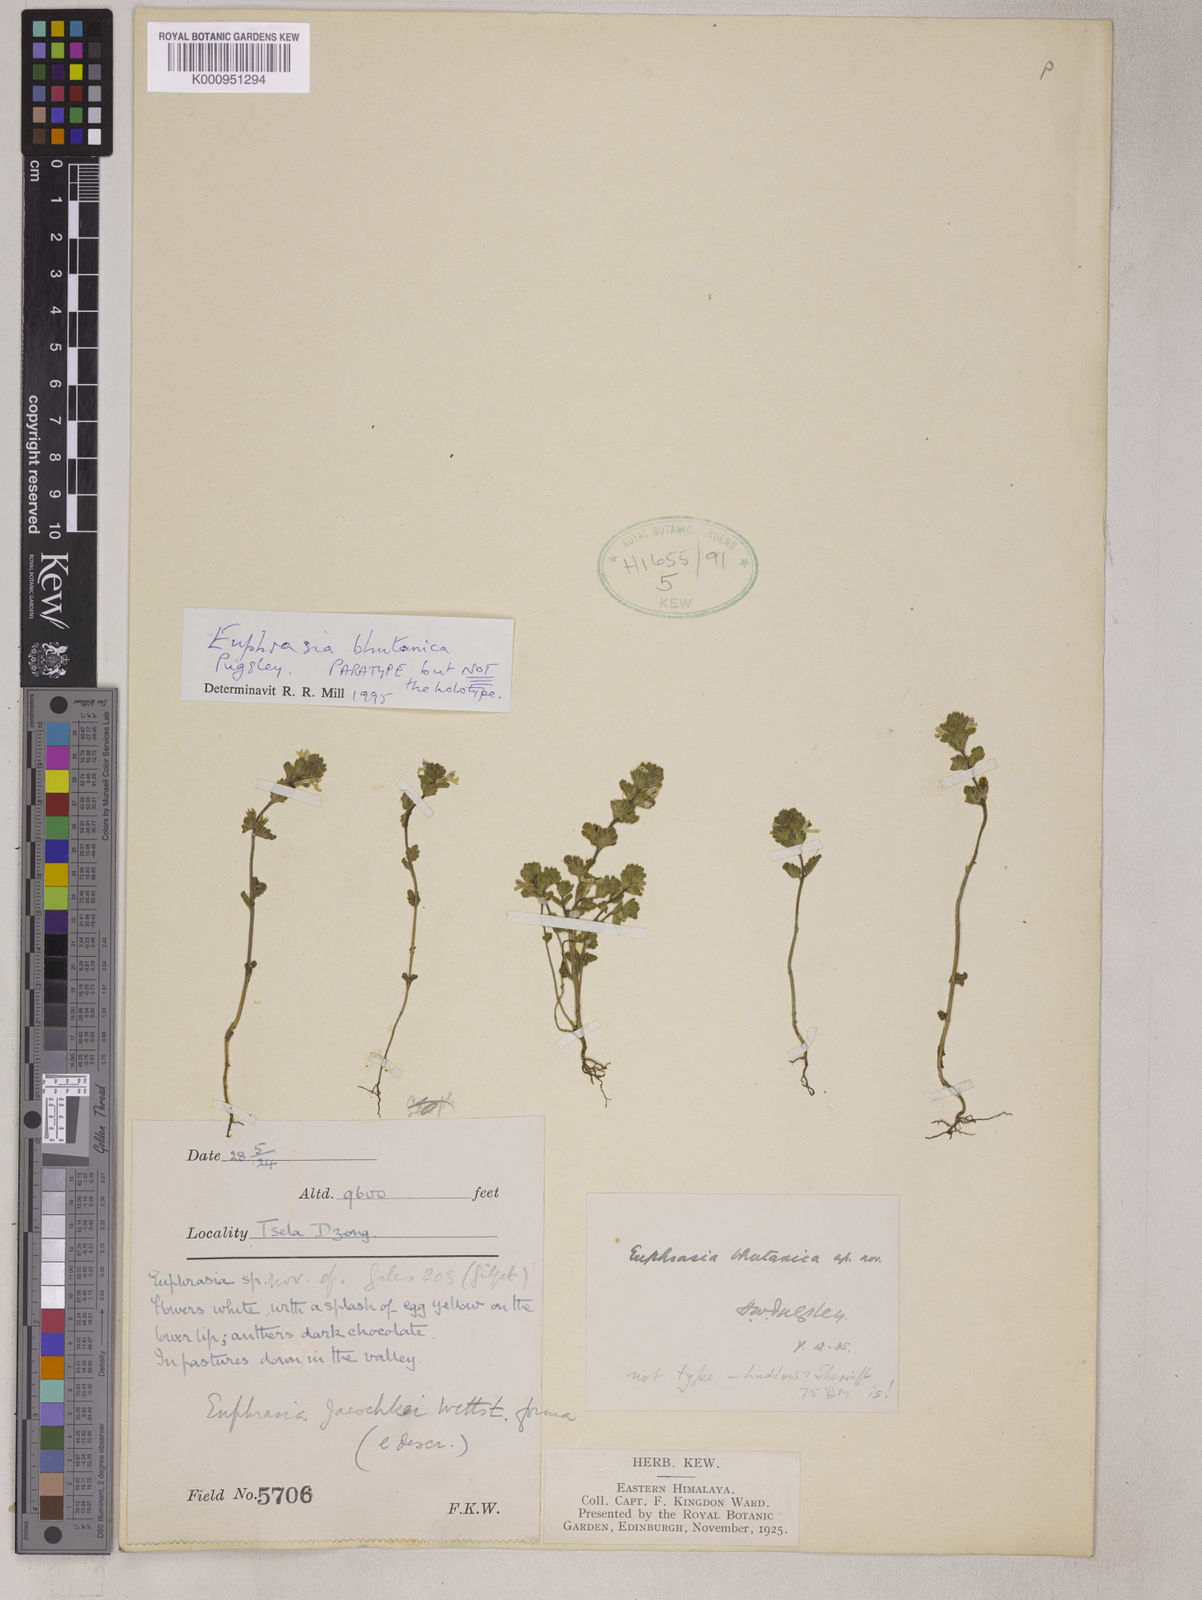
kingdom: Plantae
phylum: Tracheophyta
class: Magnoliopsida
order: Lamiales
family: Orobanchaceae
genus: Euphrasia
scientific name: Euphrasia bhutanica
